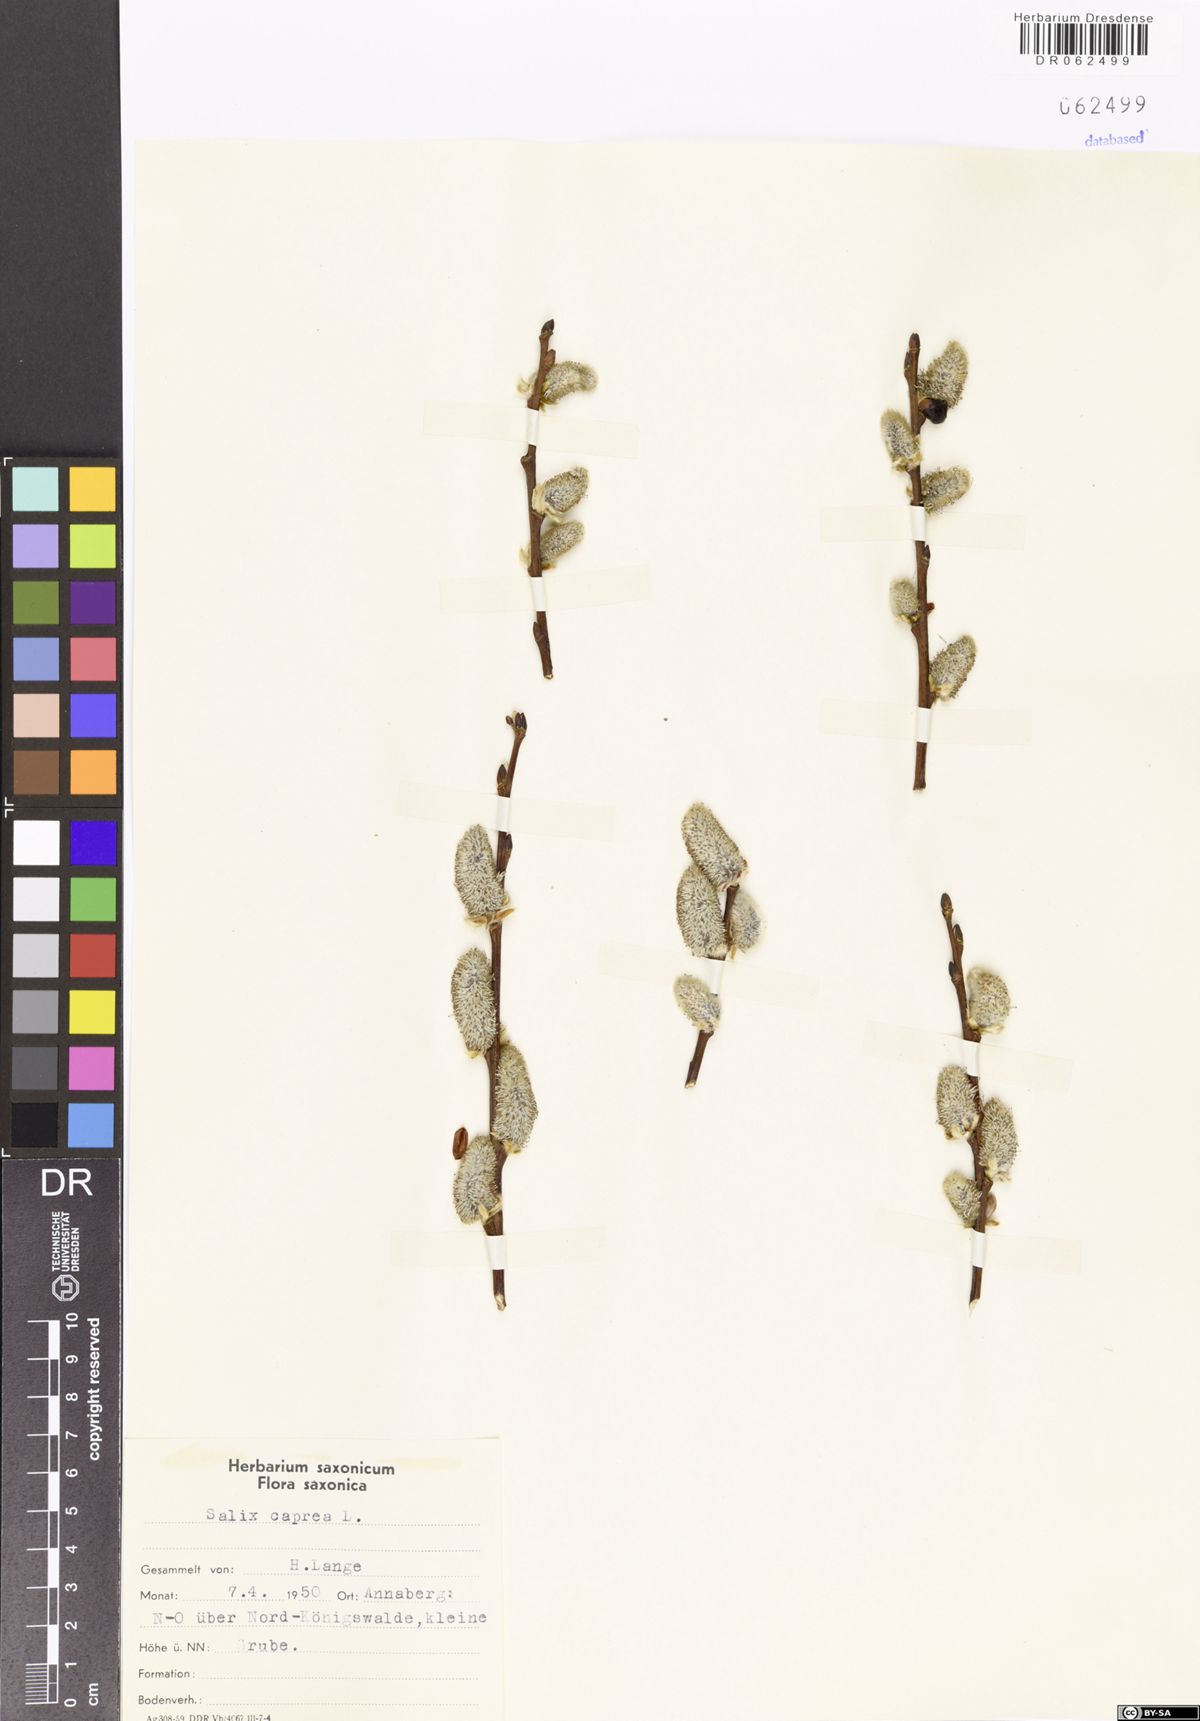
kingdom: Plantae
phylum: Tracheophyta
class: Magnoliopsida
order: Malpighiales
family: Salicaceae
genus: Salix
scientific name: Salix caprea
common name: Goat willow
